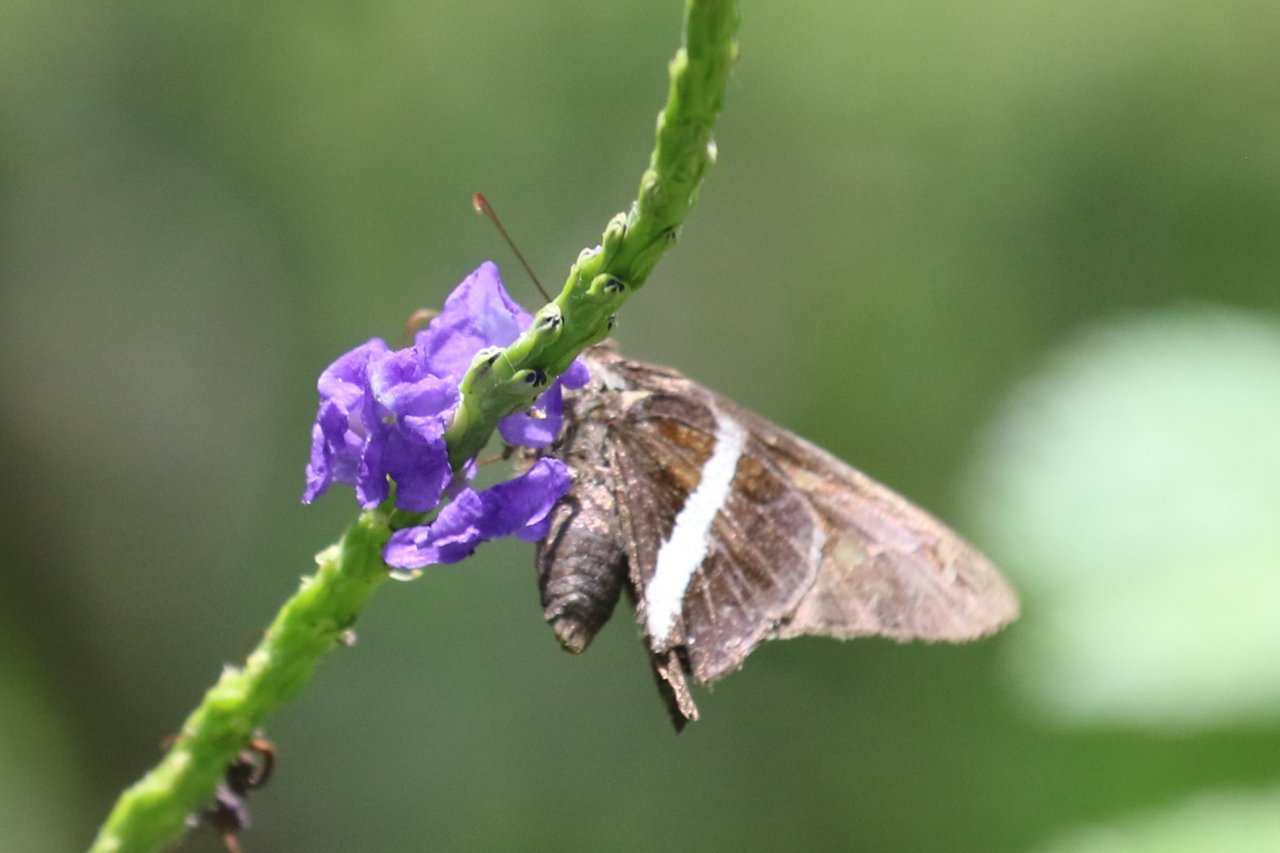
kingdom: Animalia
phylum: Arthropoda
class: Insecta
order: Lepidoptera
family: Hesperiidae
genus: Chioides
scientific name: Chioides catillus
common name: White-striped Longtail
